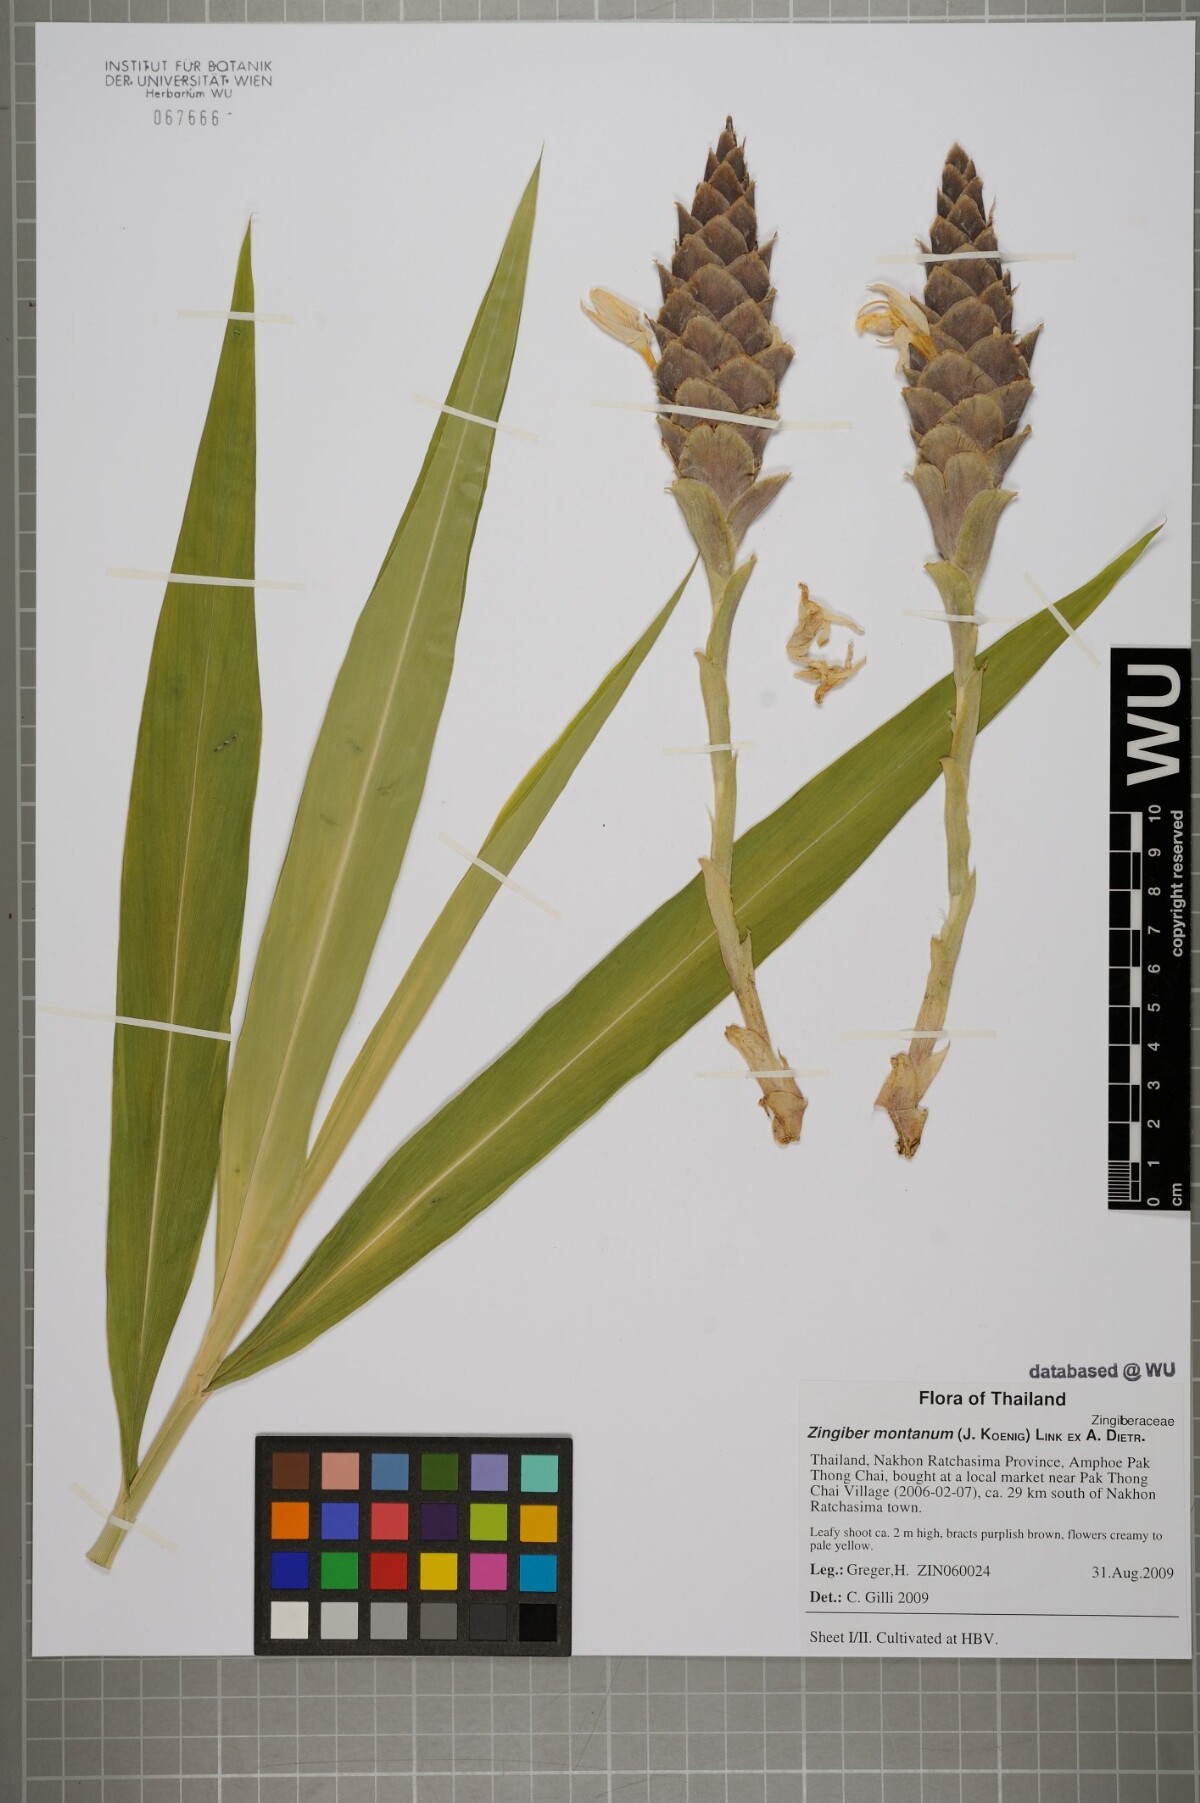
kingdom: Plantae
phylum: Tracheophyta
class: Liliopsida
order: Zingiberales
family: Zingiberaceae
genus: Zingiber
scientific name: Zingiber montanum
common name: Bengal ginger
